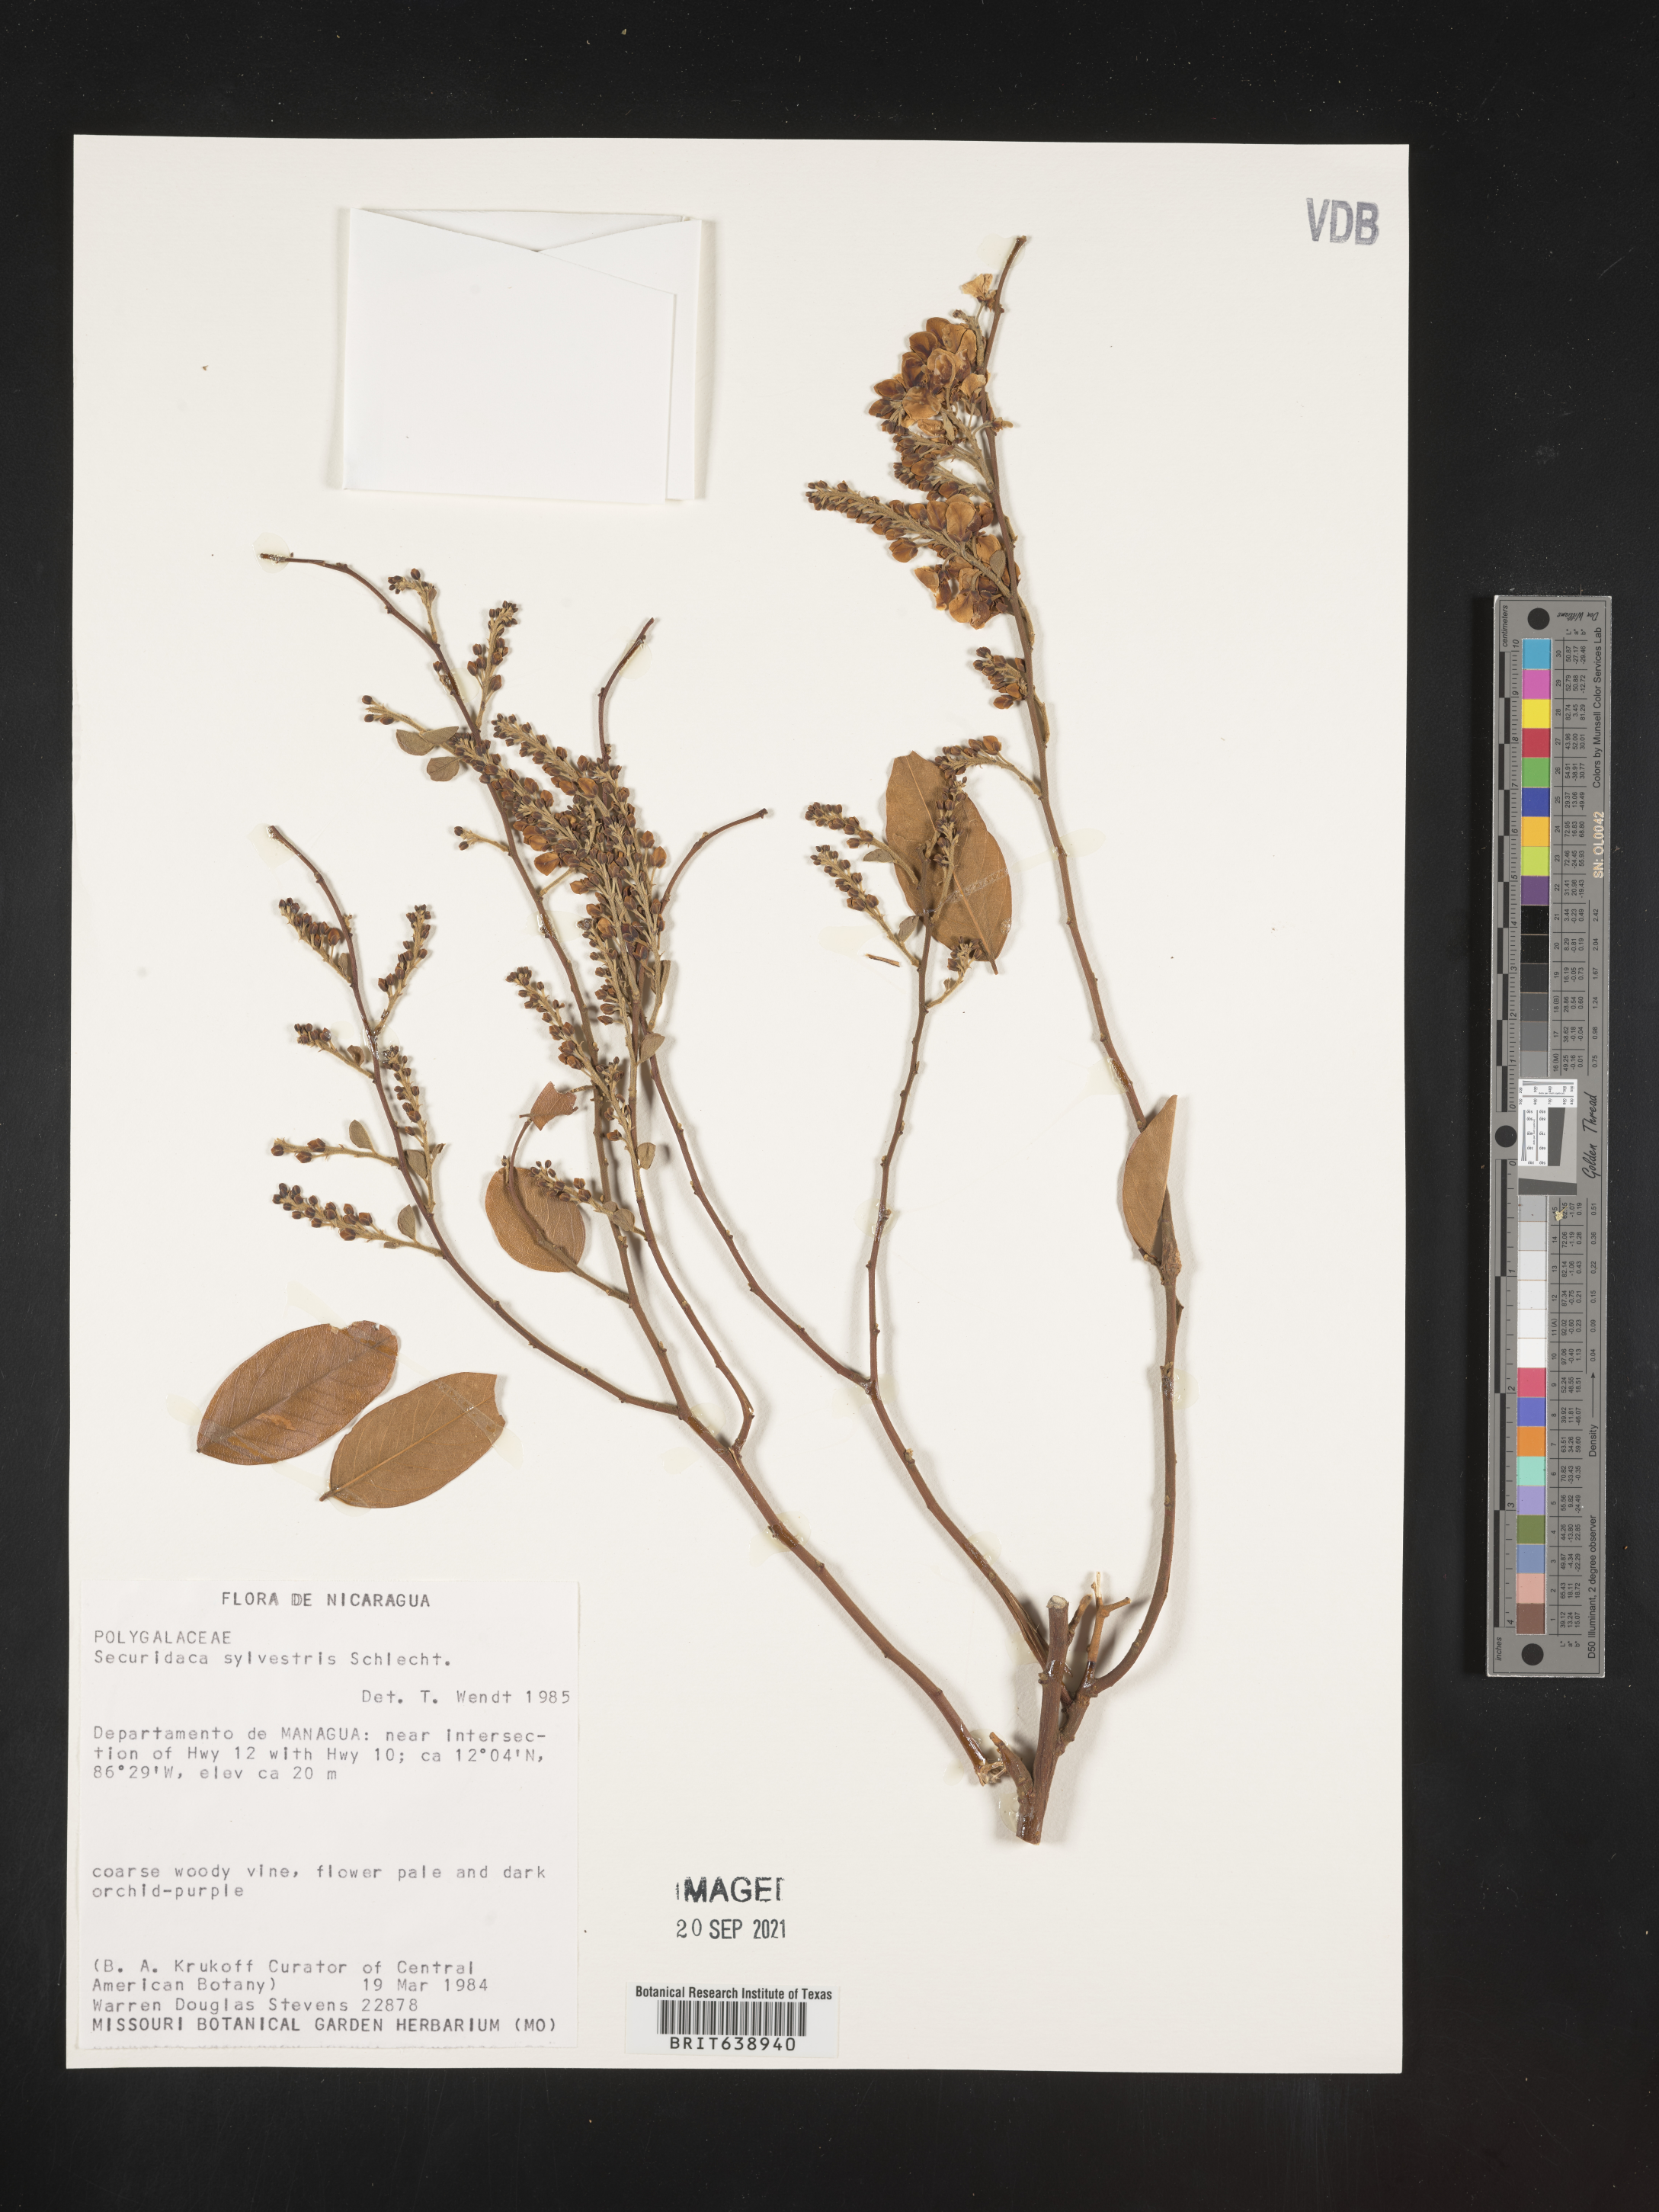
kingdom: Plantae
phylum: Tracheophyta
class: Magnoliopsida
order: Fabales
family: Polygalaceae
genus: Securidaca
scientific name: Securidaca
